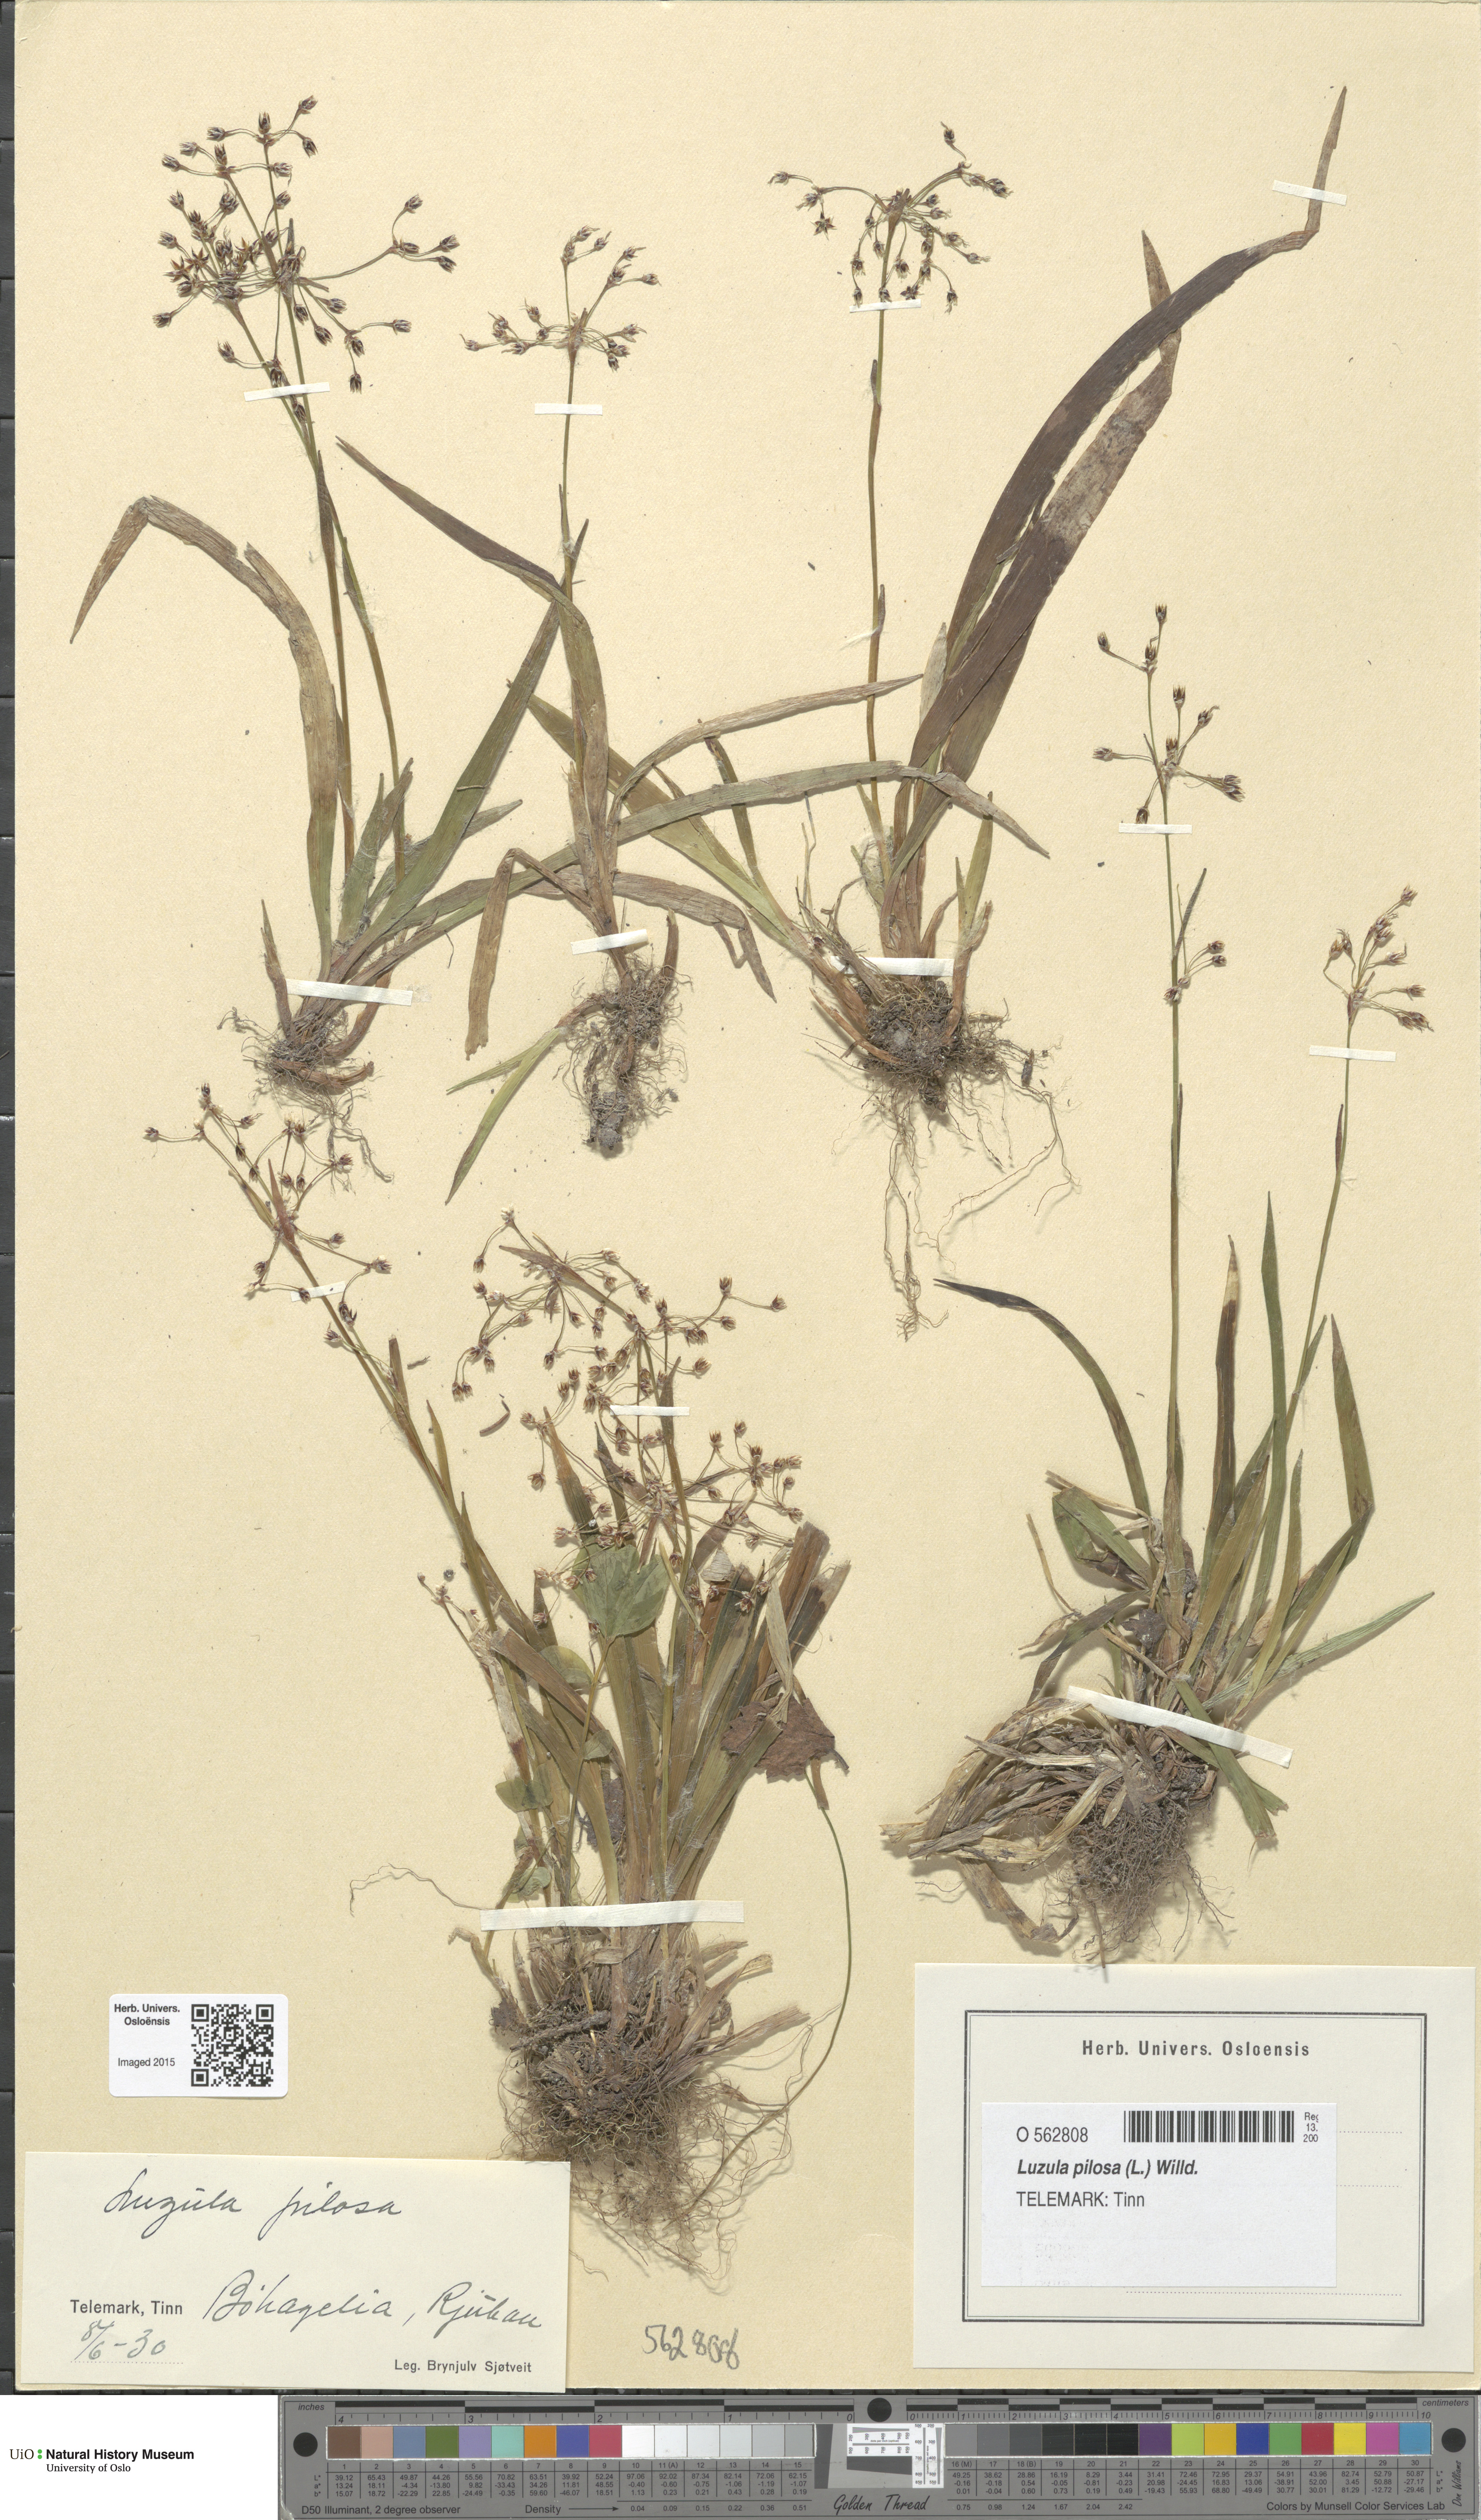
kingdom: Plantae
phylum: Tracheophyta
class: Liliopsida
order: Poales
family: Juncaceae
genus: Luzula
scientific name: Luzula pilosa
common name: Hairy wood-rush
